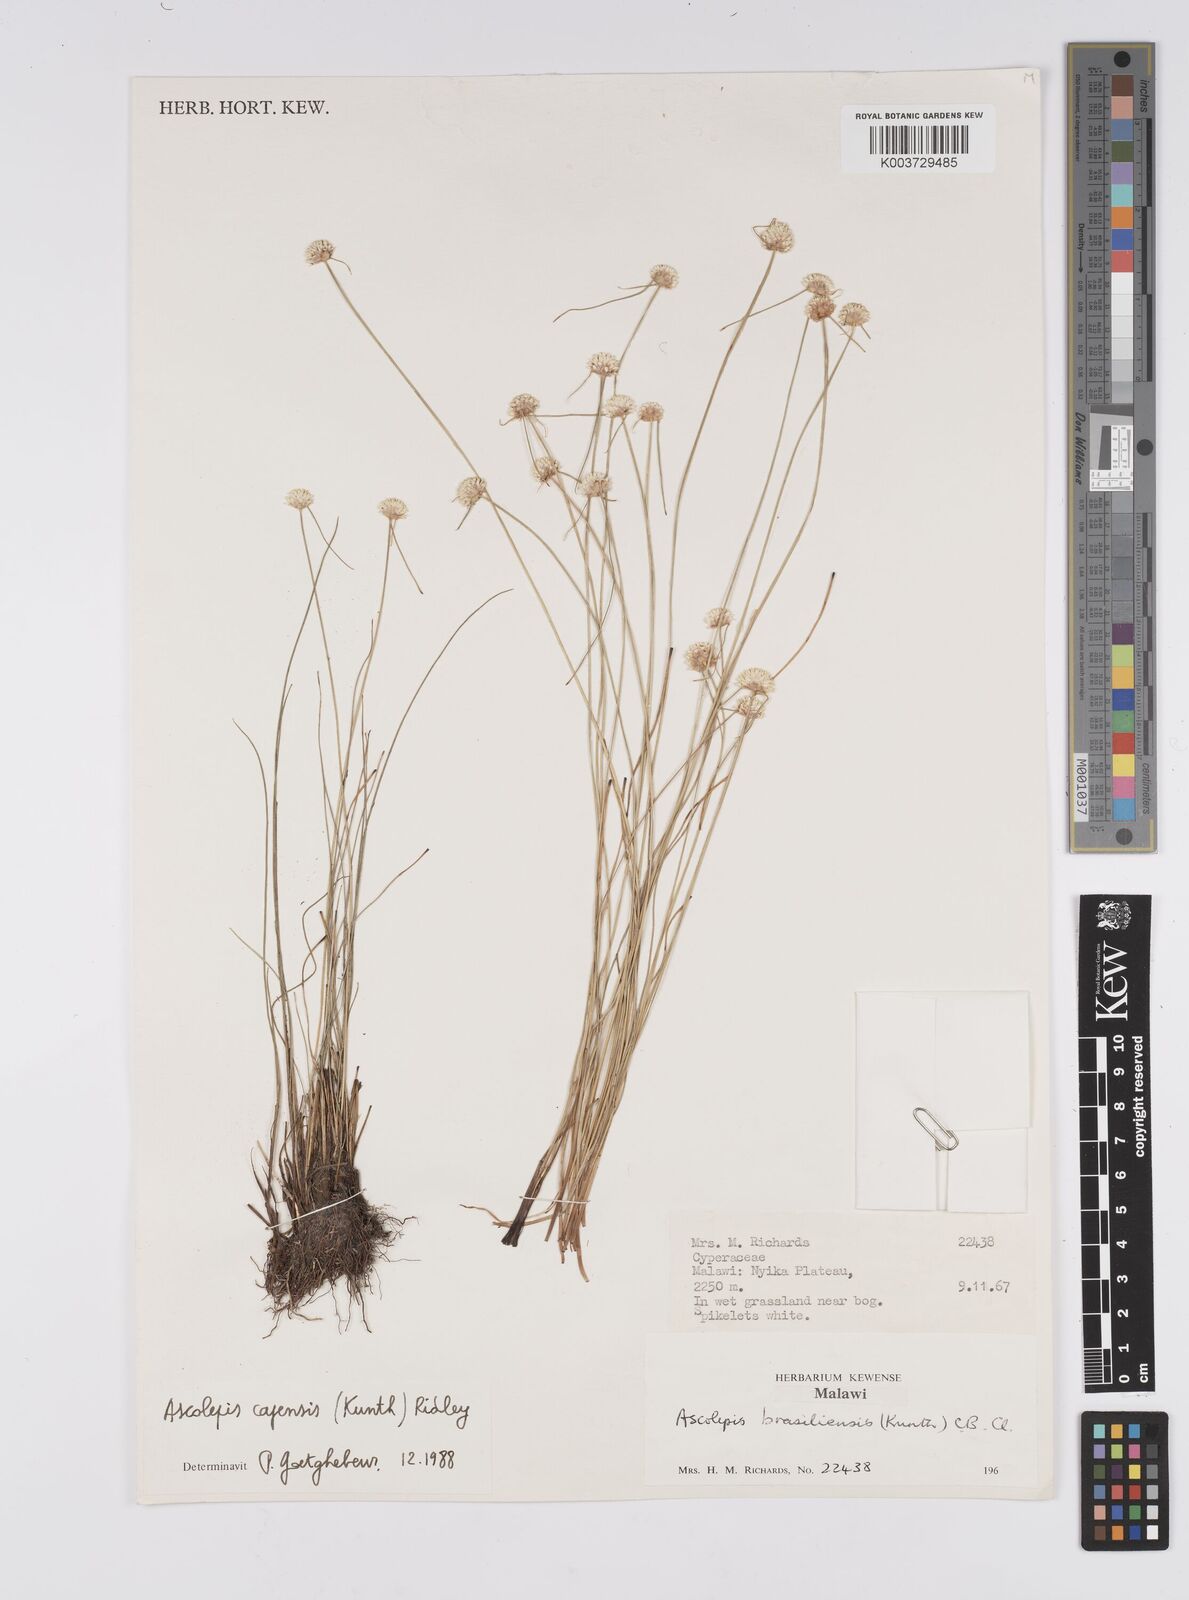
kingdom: Plantae
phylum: Tracheophyta
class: Liliopsida
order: Poales
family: Cyperaceae
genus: Cyperus
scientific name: Cyperus
